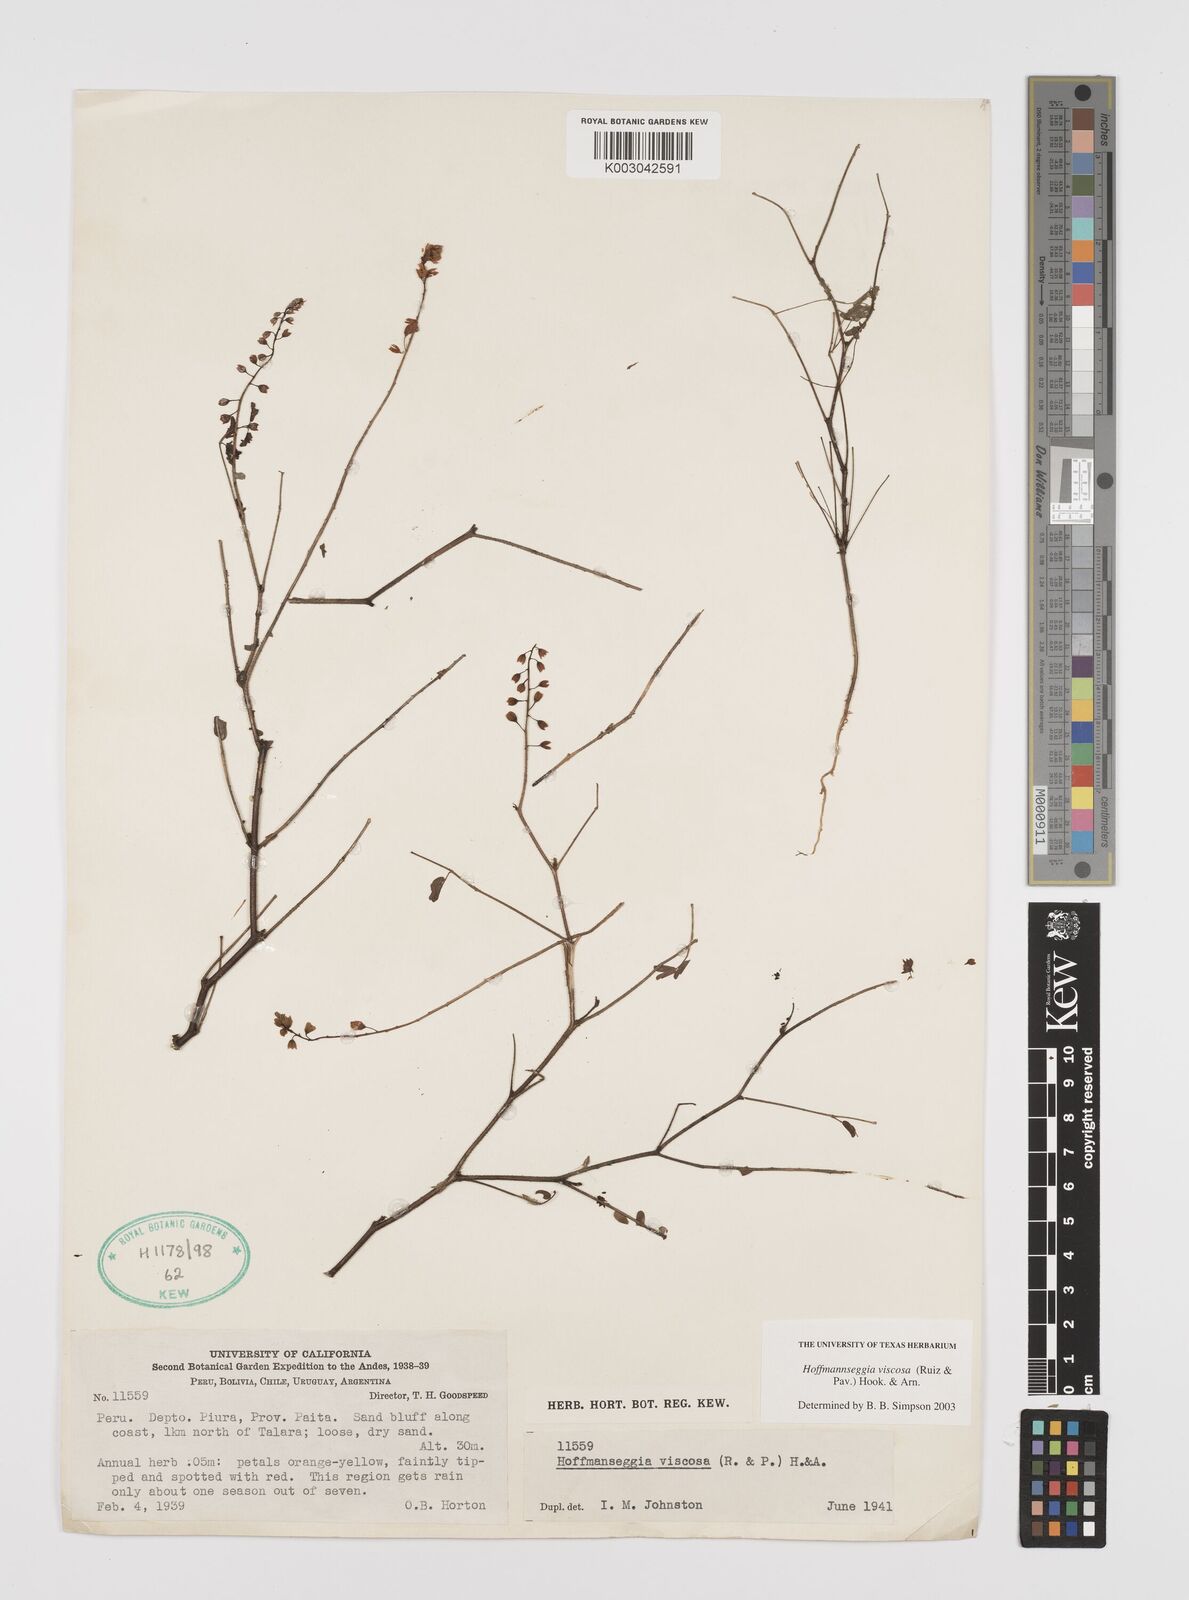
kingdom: Plantae
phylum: Tracheophyta
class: Magnoliopsida
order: Fabales
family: Fabaceae
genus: Hoffmannseggia
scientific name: Hoffmannseggia viscosa
